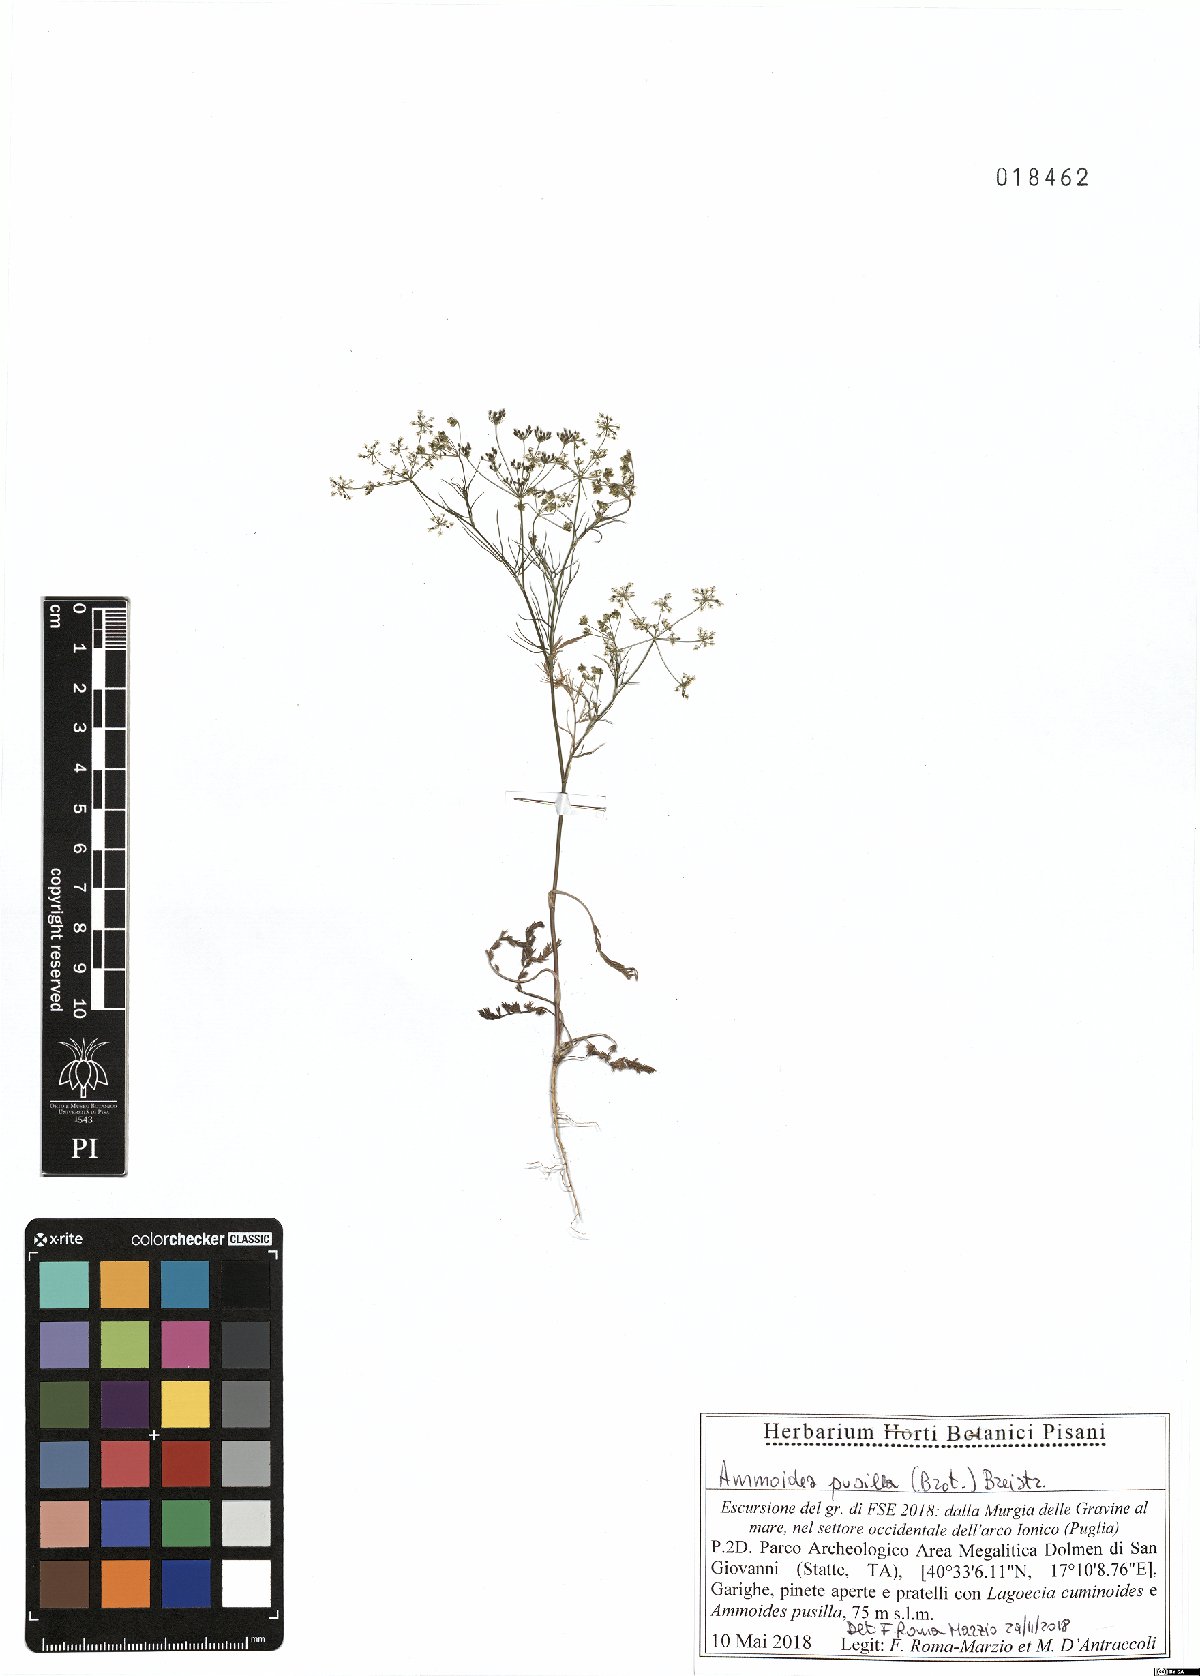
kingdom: Plantae
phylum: Tracheophyta
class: Magnoliopsida
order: Apiales
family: Apiaceae
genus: Ammoides
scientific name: Ammoides pusilla
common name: Cerfolium
